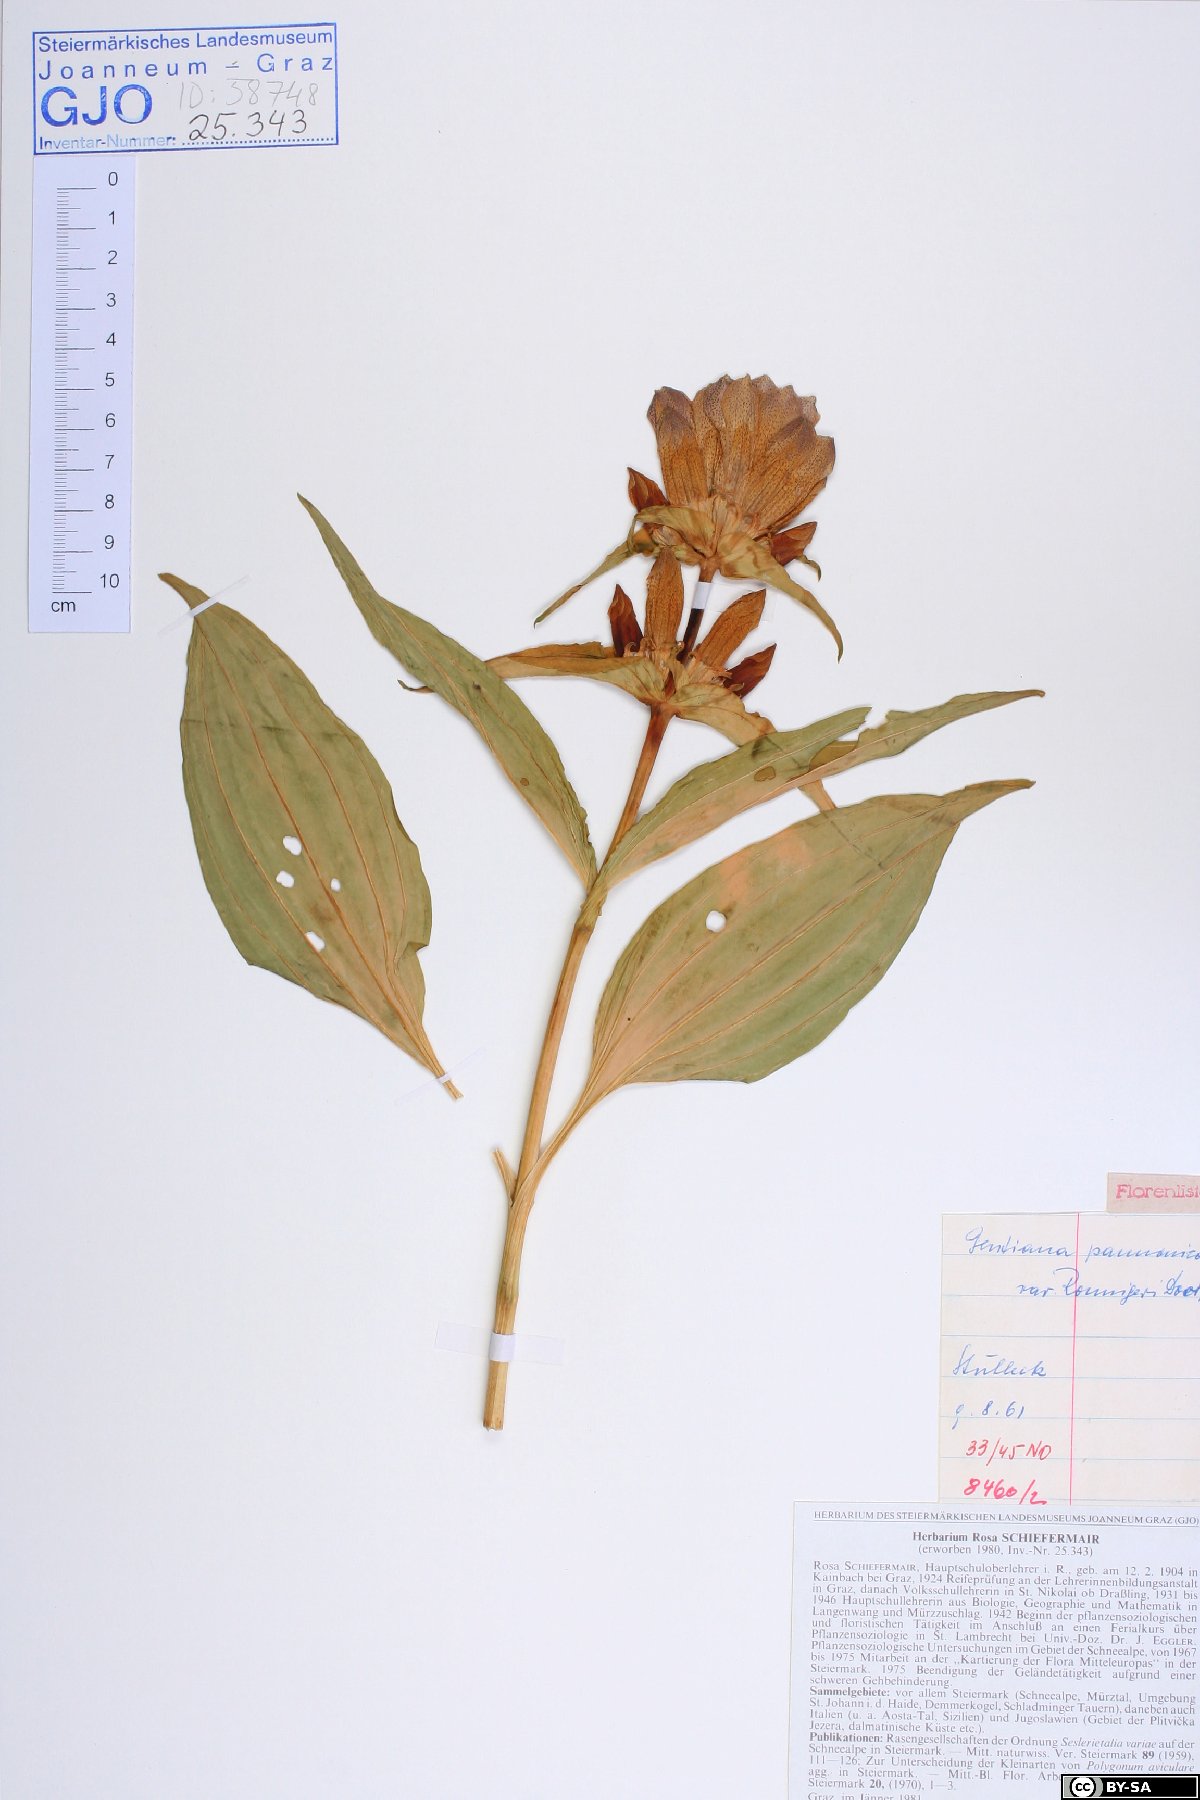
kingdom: Plantae
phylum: Tracheophyta
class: Magnoliopsida
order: Gentianales
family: Gentianaceae
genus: Gentiana
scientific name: Gentiana pannonica
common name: Hungarian gentian
